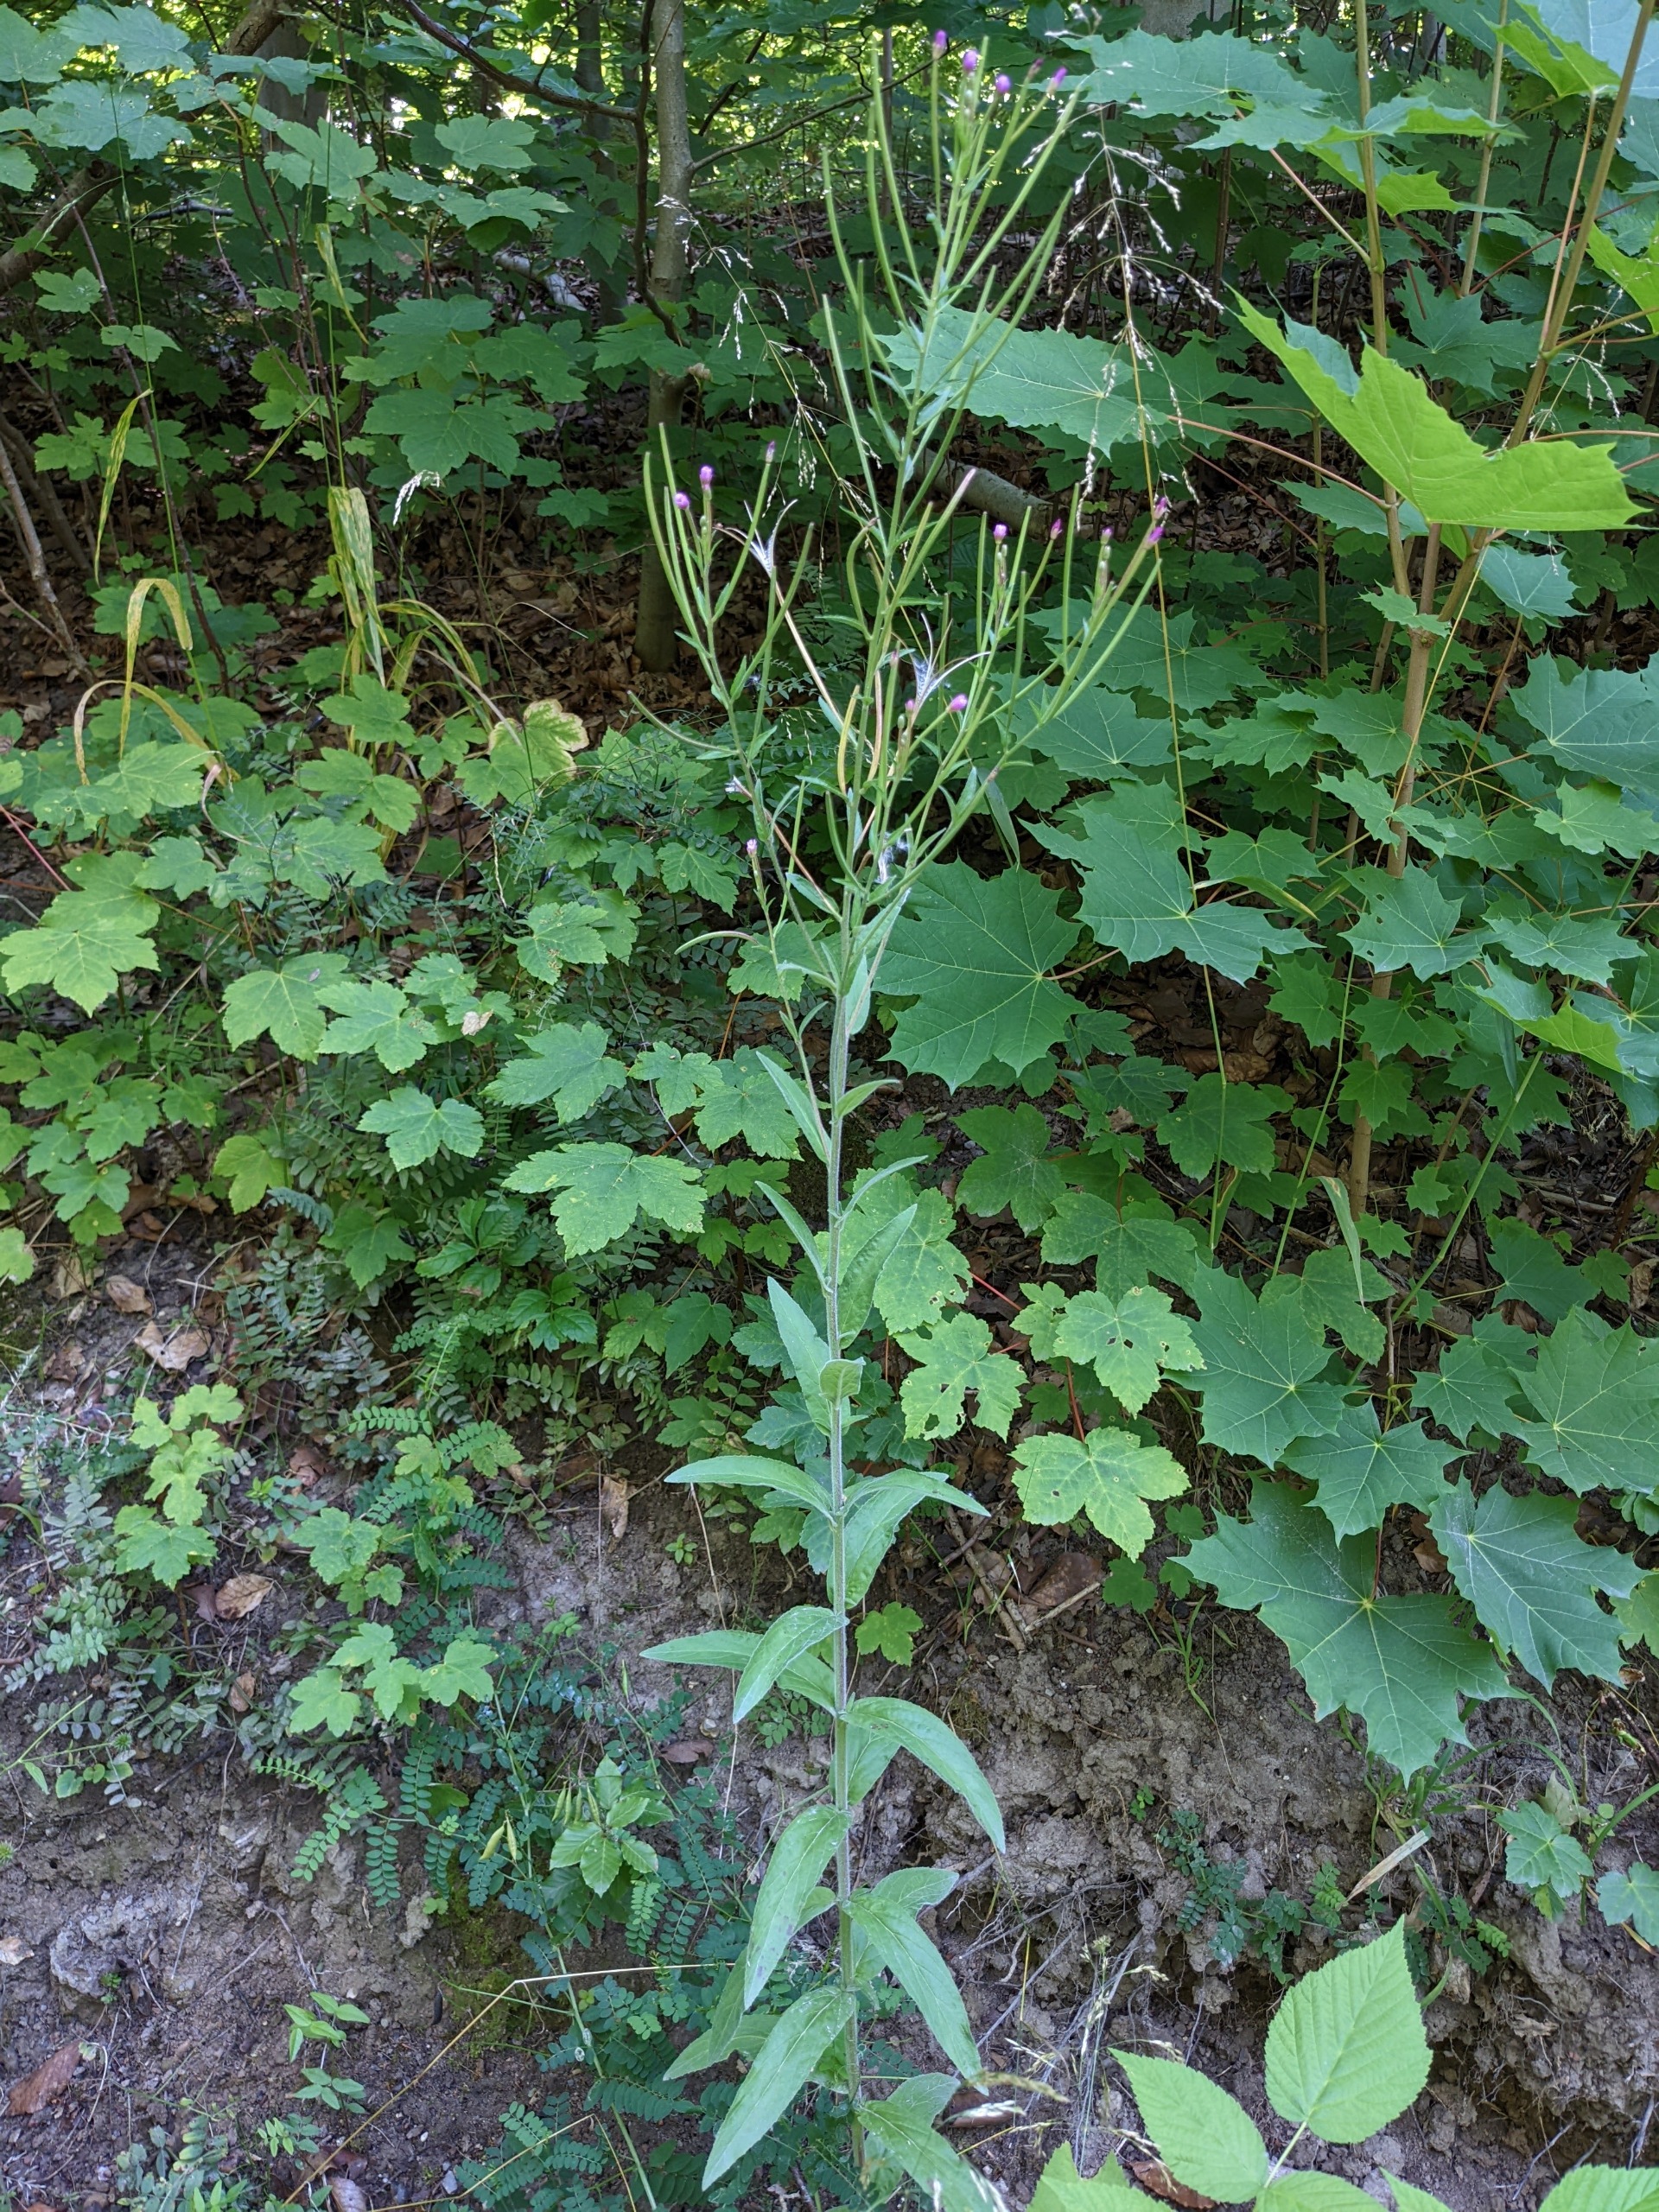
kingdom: Plantae
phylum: Tracheophyta
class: Magnoliopsida
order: Myrtales
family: Onagraceae
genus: Epilobium
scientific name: Epilobium parviflorum
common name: Dunet dueurt
